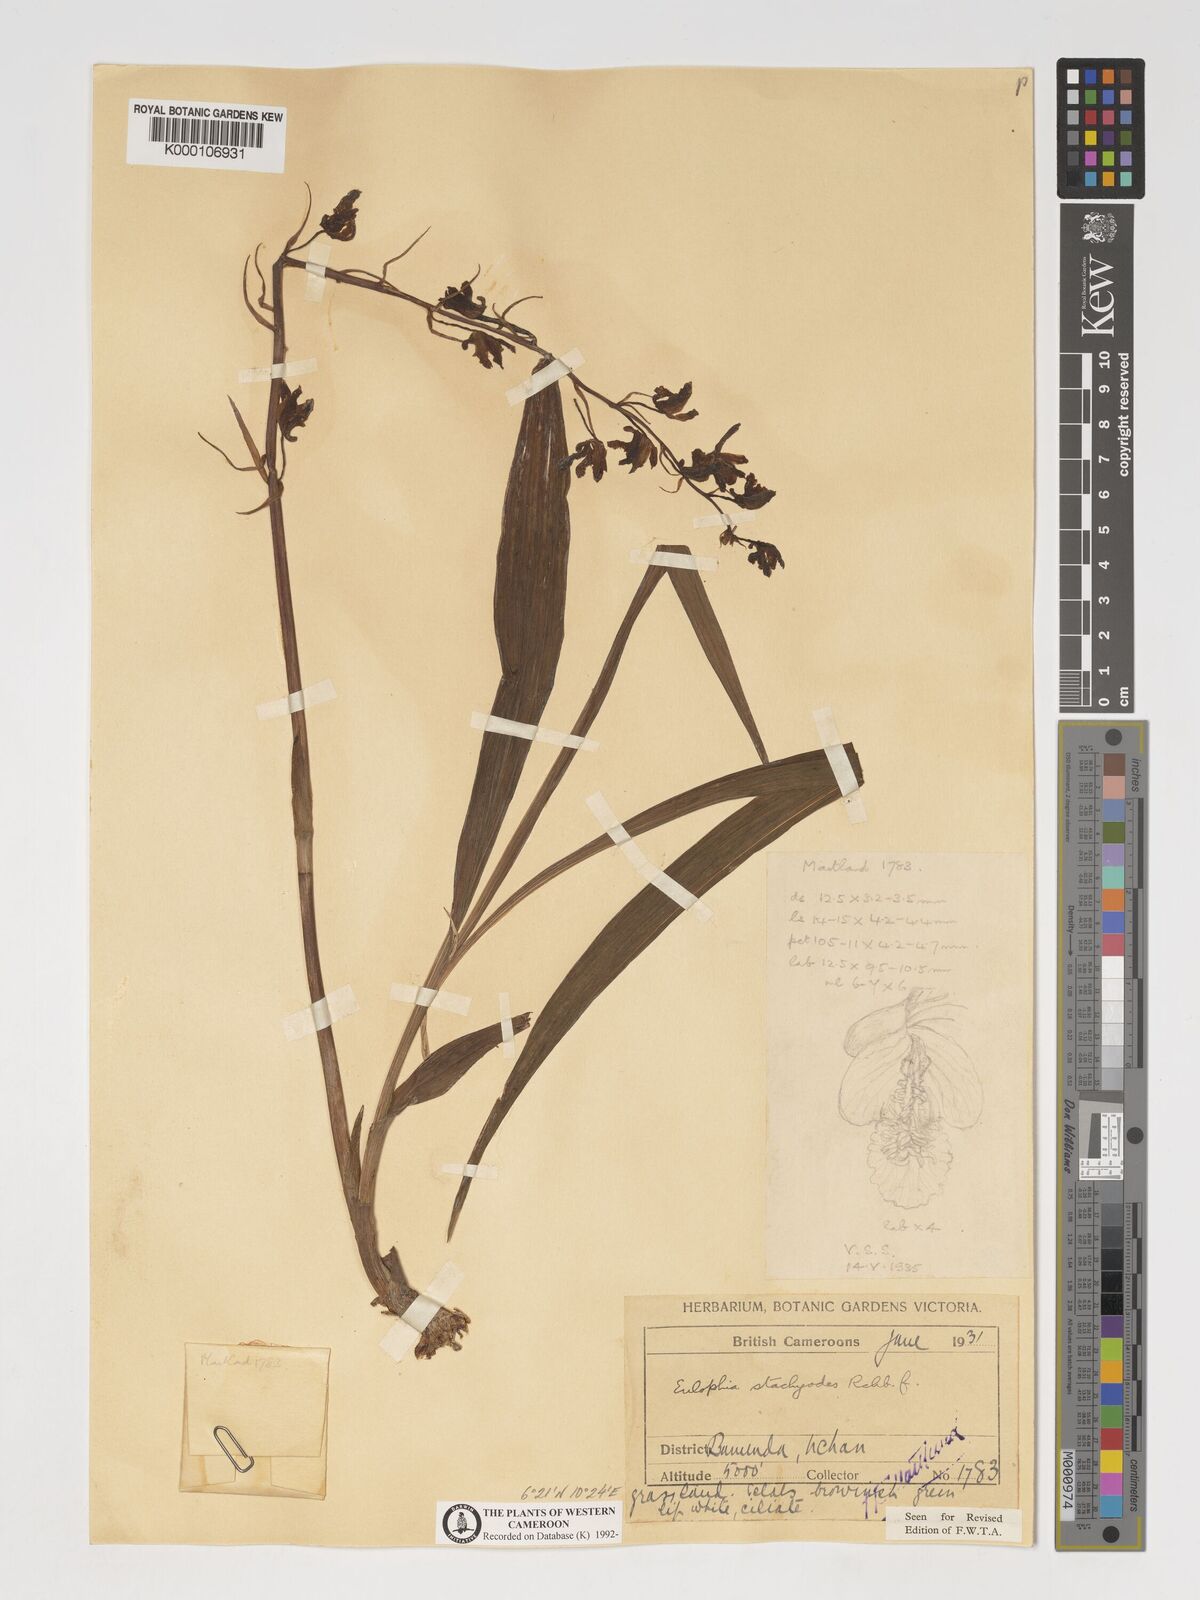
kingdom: Plantae
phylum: Tracheophyta
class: Liliopsida
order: Asparagales
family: Orchidaceae
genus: Eulophia
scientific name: Eulophia stachyodes
